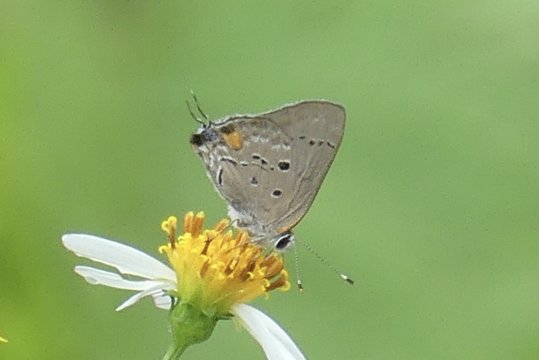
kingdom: Animalia
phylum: Arthropoda
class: Insecta
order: Lepidoptera
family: Lycaenidae
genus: Thecla
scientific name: Thecla limenia
